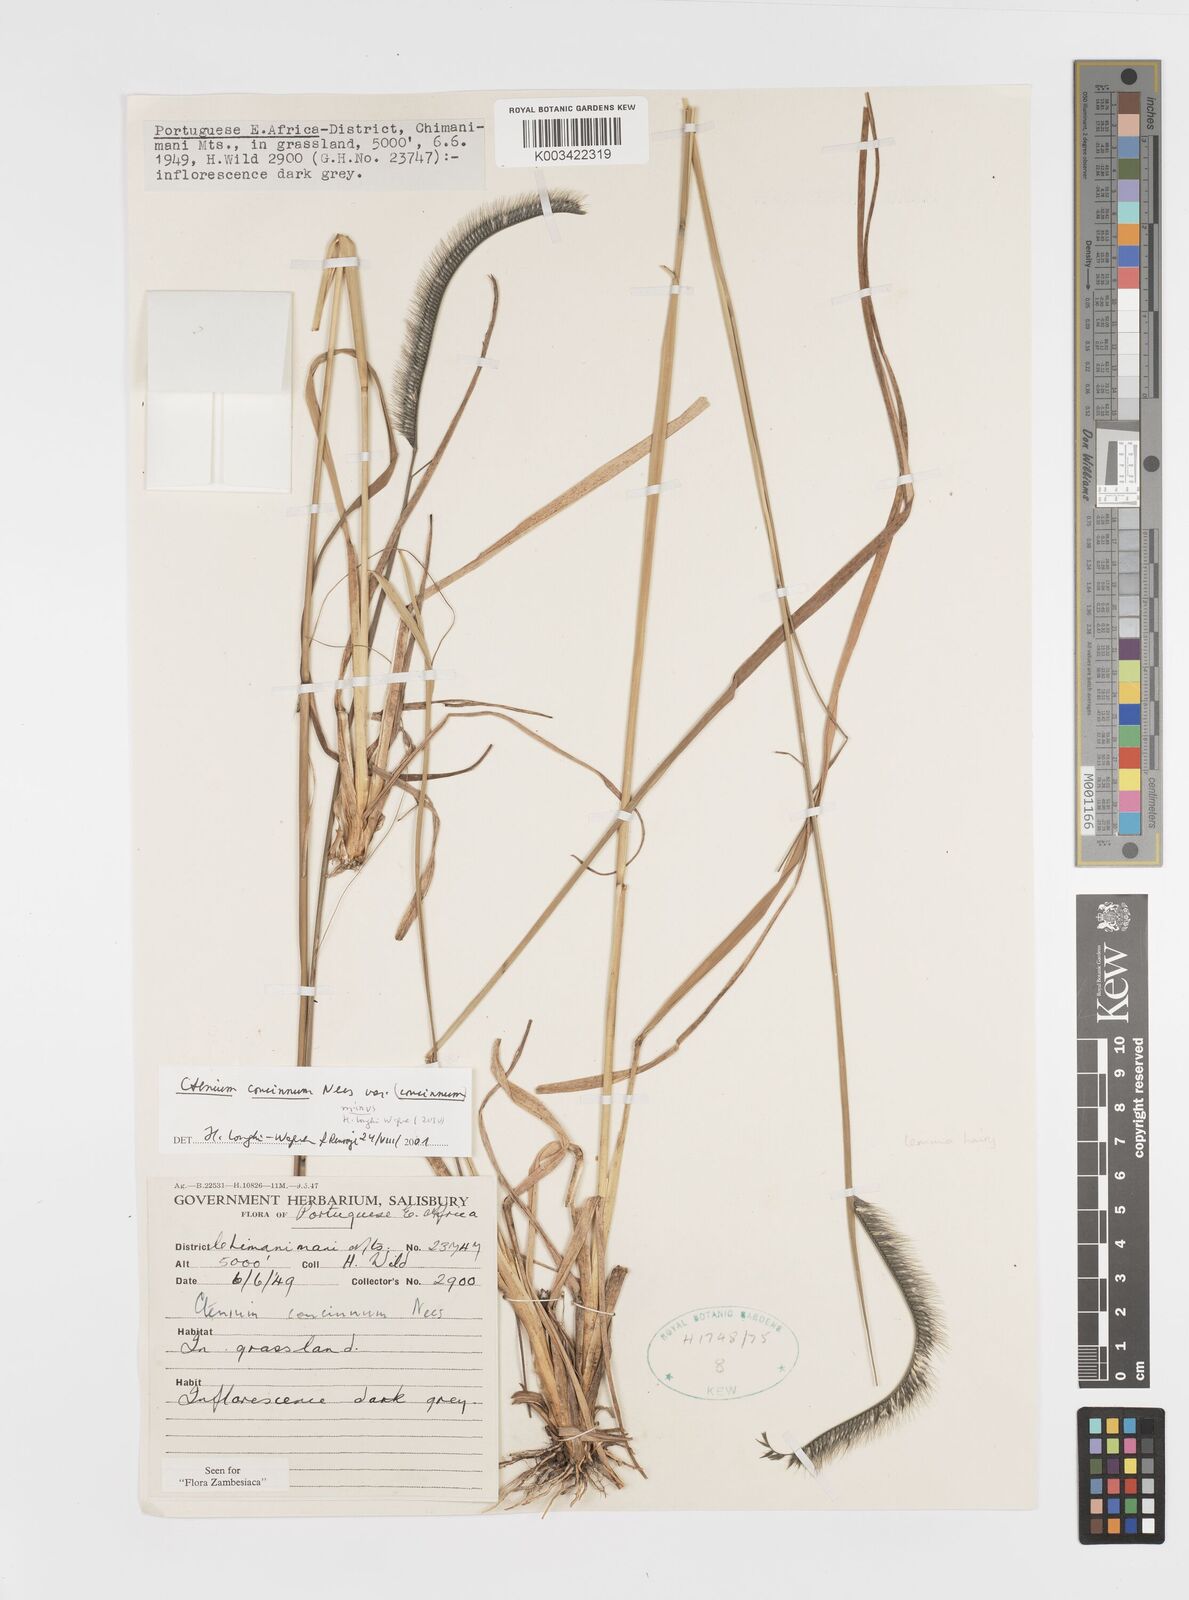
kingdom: Plantae
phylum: Tracheophyta
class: Liliopsida
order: Poales
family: Poaceae
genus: Ctenium
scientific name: Ctenium concinnum
